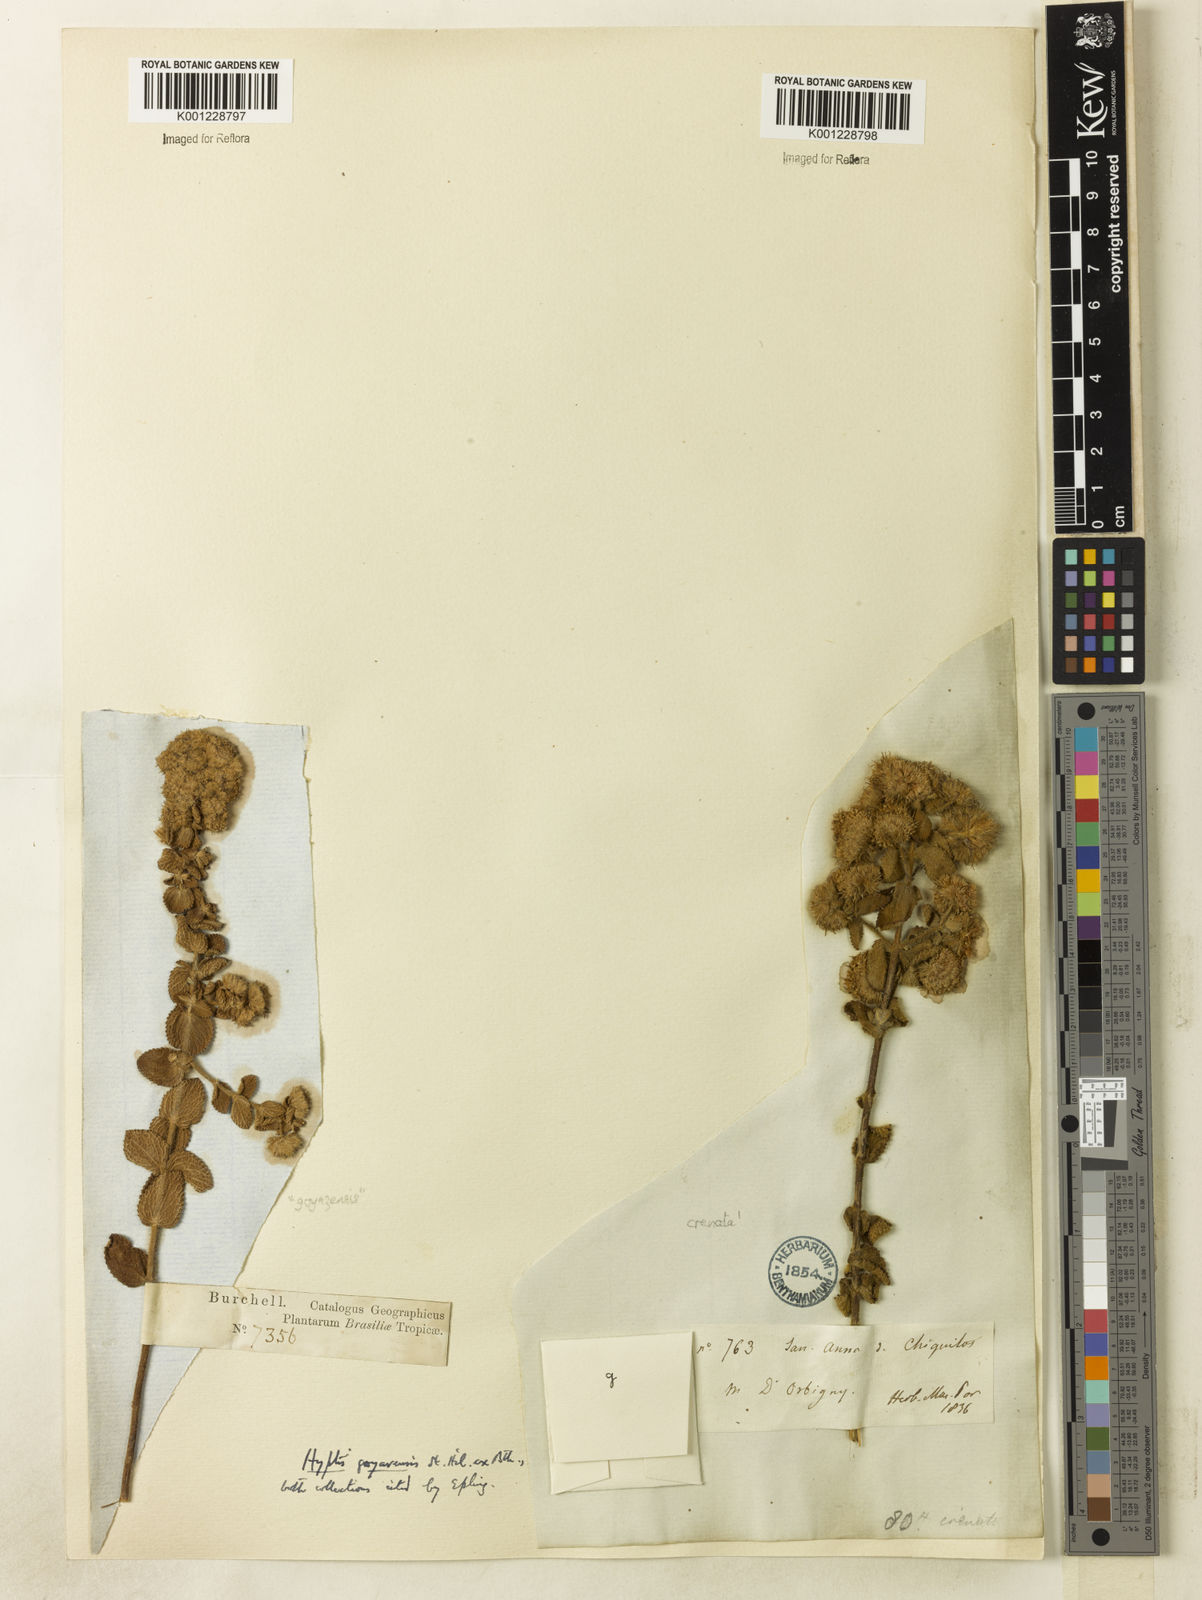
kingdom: Plantae
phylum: Tracheophyta
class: Magnoliopsida
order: Lamiales
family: Lamiaceae
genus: Hyptis
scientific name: Hyptis goyazensis
